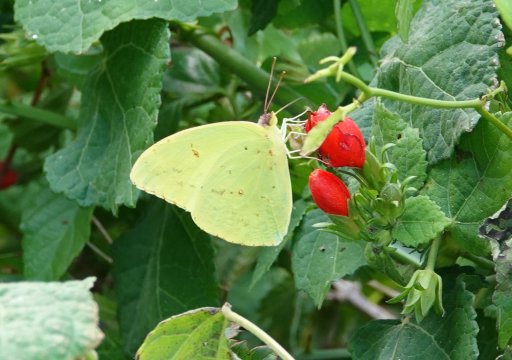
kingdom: Animalia
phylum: Arthropoda
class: Insecta
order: Lepidoptera
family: Pieridae
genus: Phoebis
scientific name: Phoebis sennae
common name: Cloudless Sulphur
